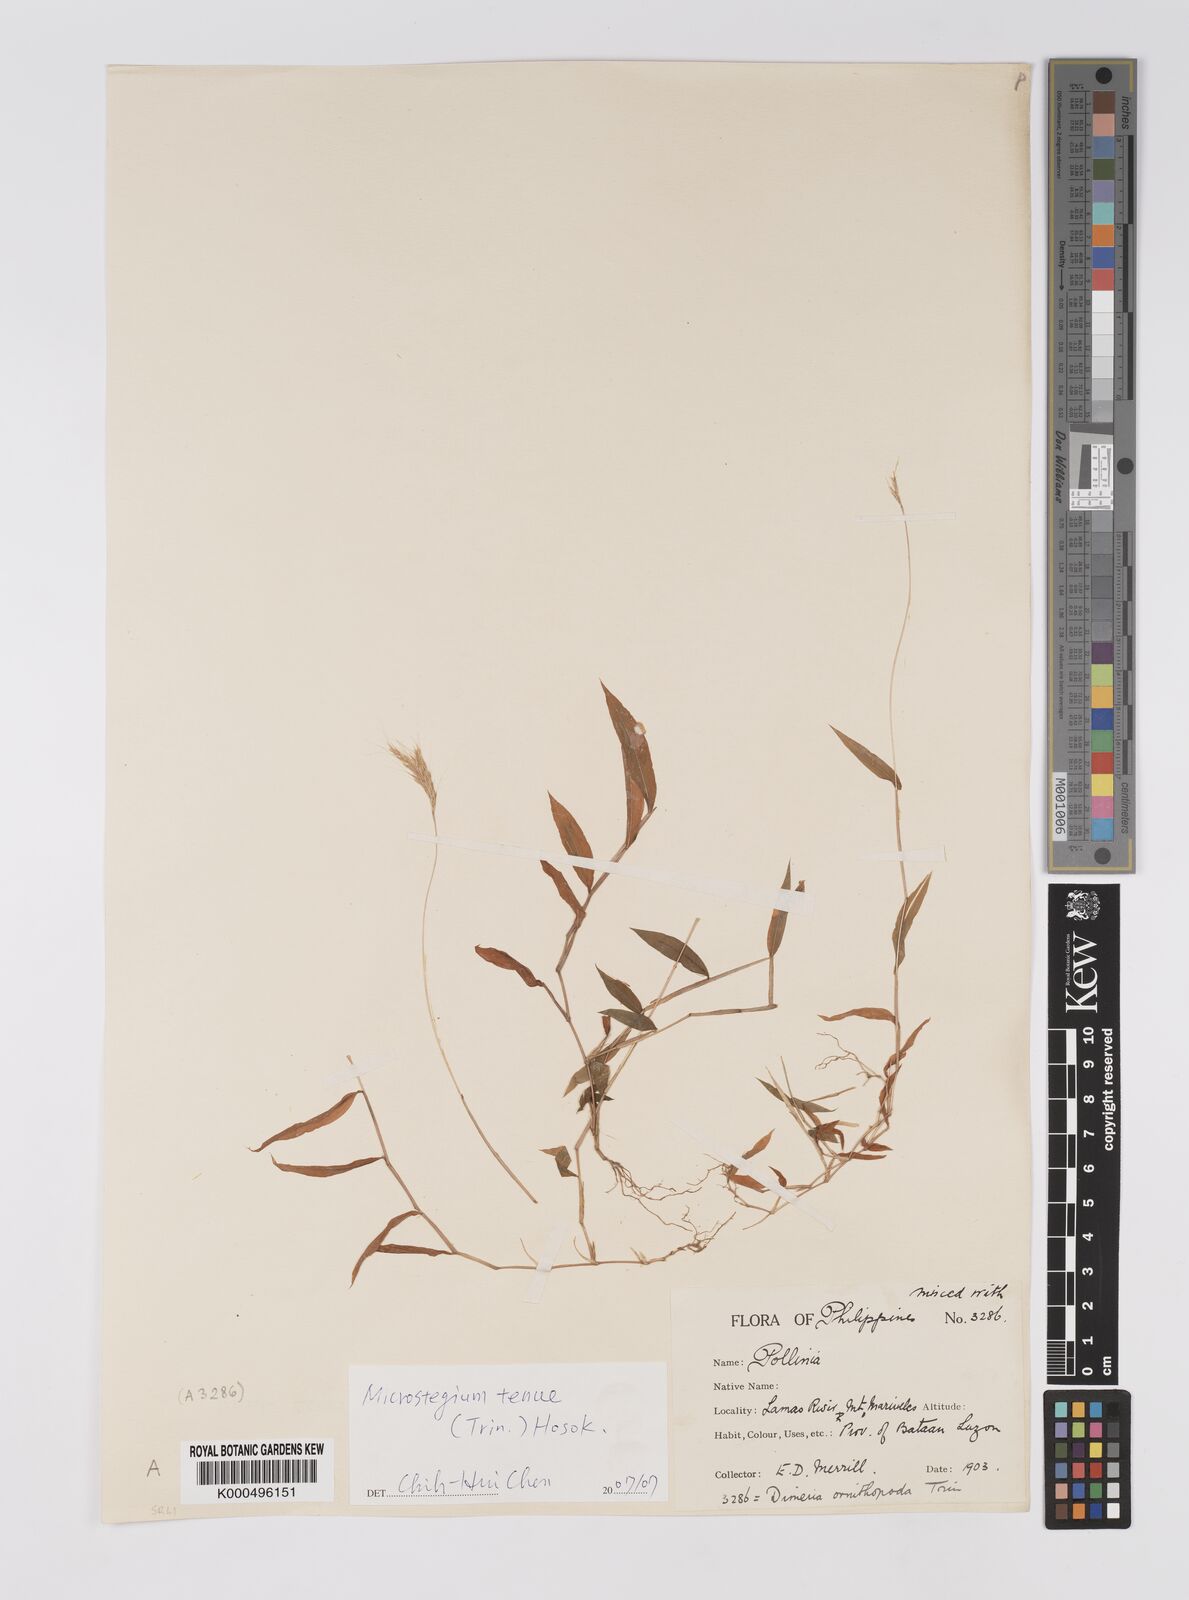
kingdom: Plantae
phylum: Tracheophyta
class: Liliopsida
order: Poales
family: Poaceae
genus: Microstegium
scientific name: Microstegium tenue
